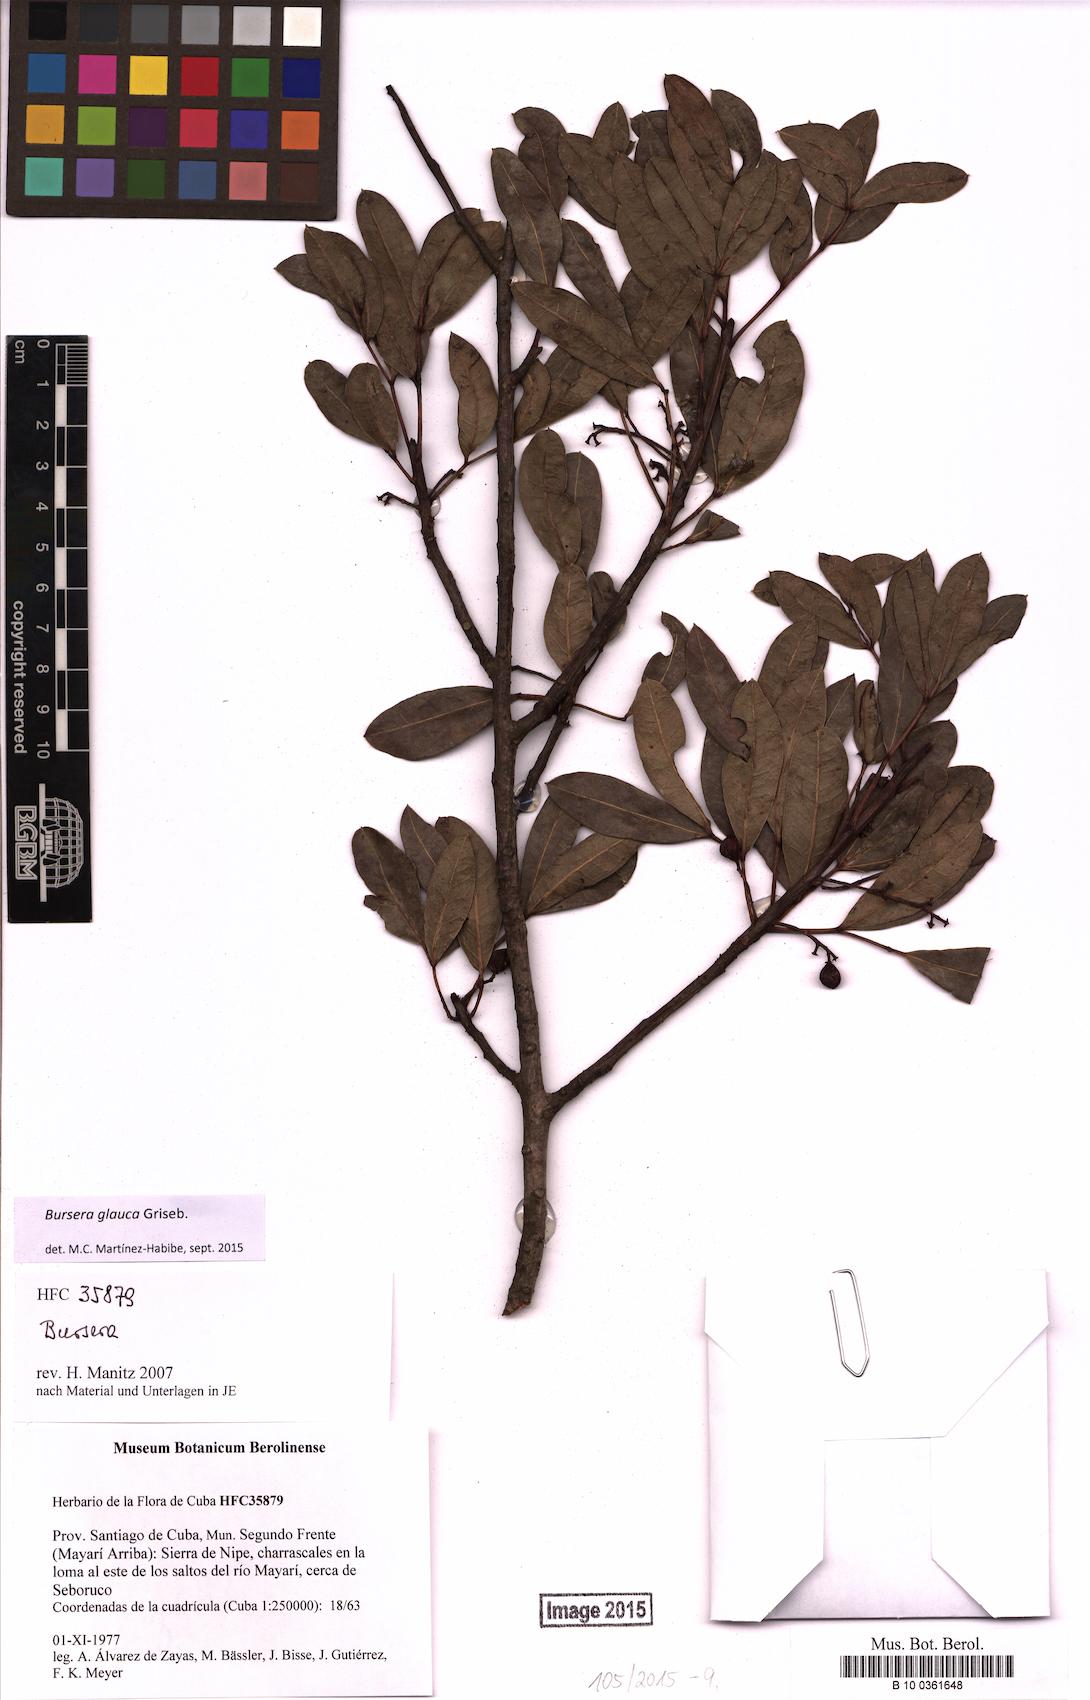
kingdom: Plantae
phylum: Tracheophyta
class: Magnoliopsida
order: Sapindales
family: Burseraceae
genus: Bursera
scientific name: Bursera glauca
